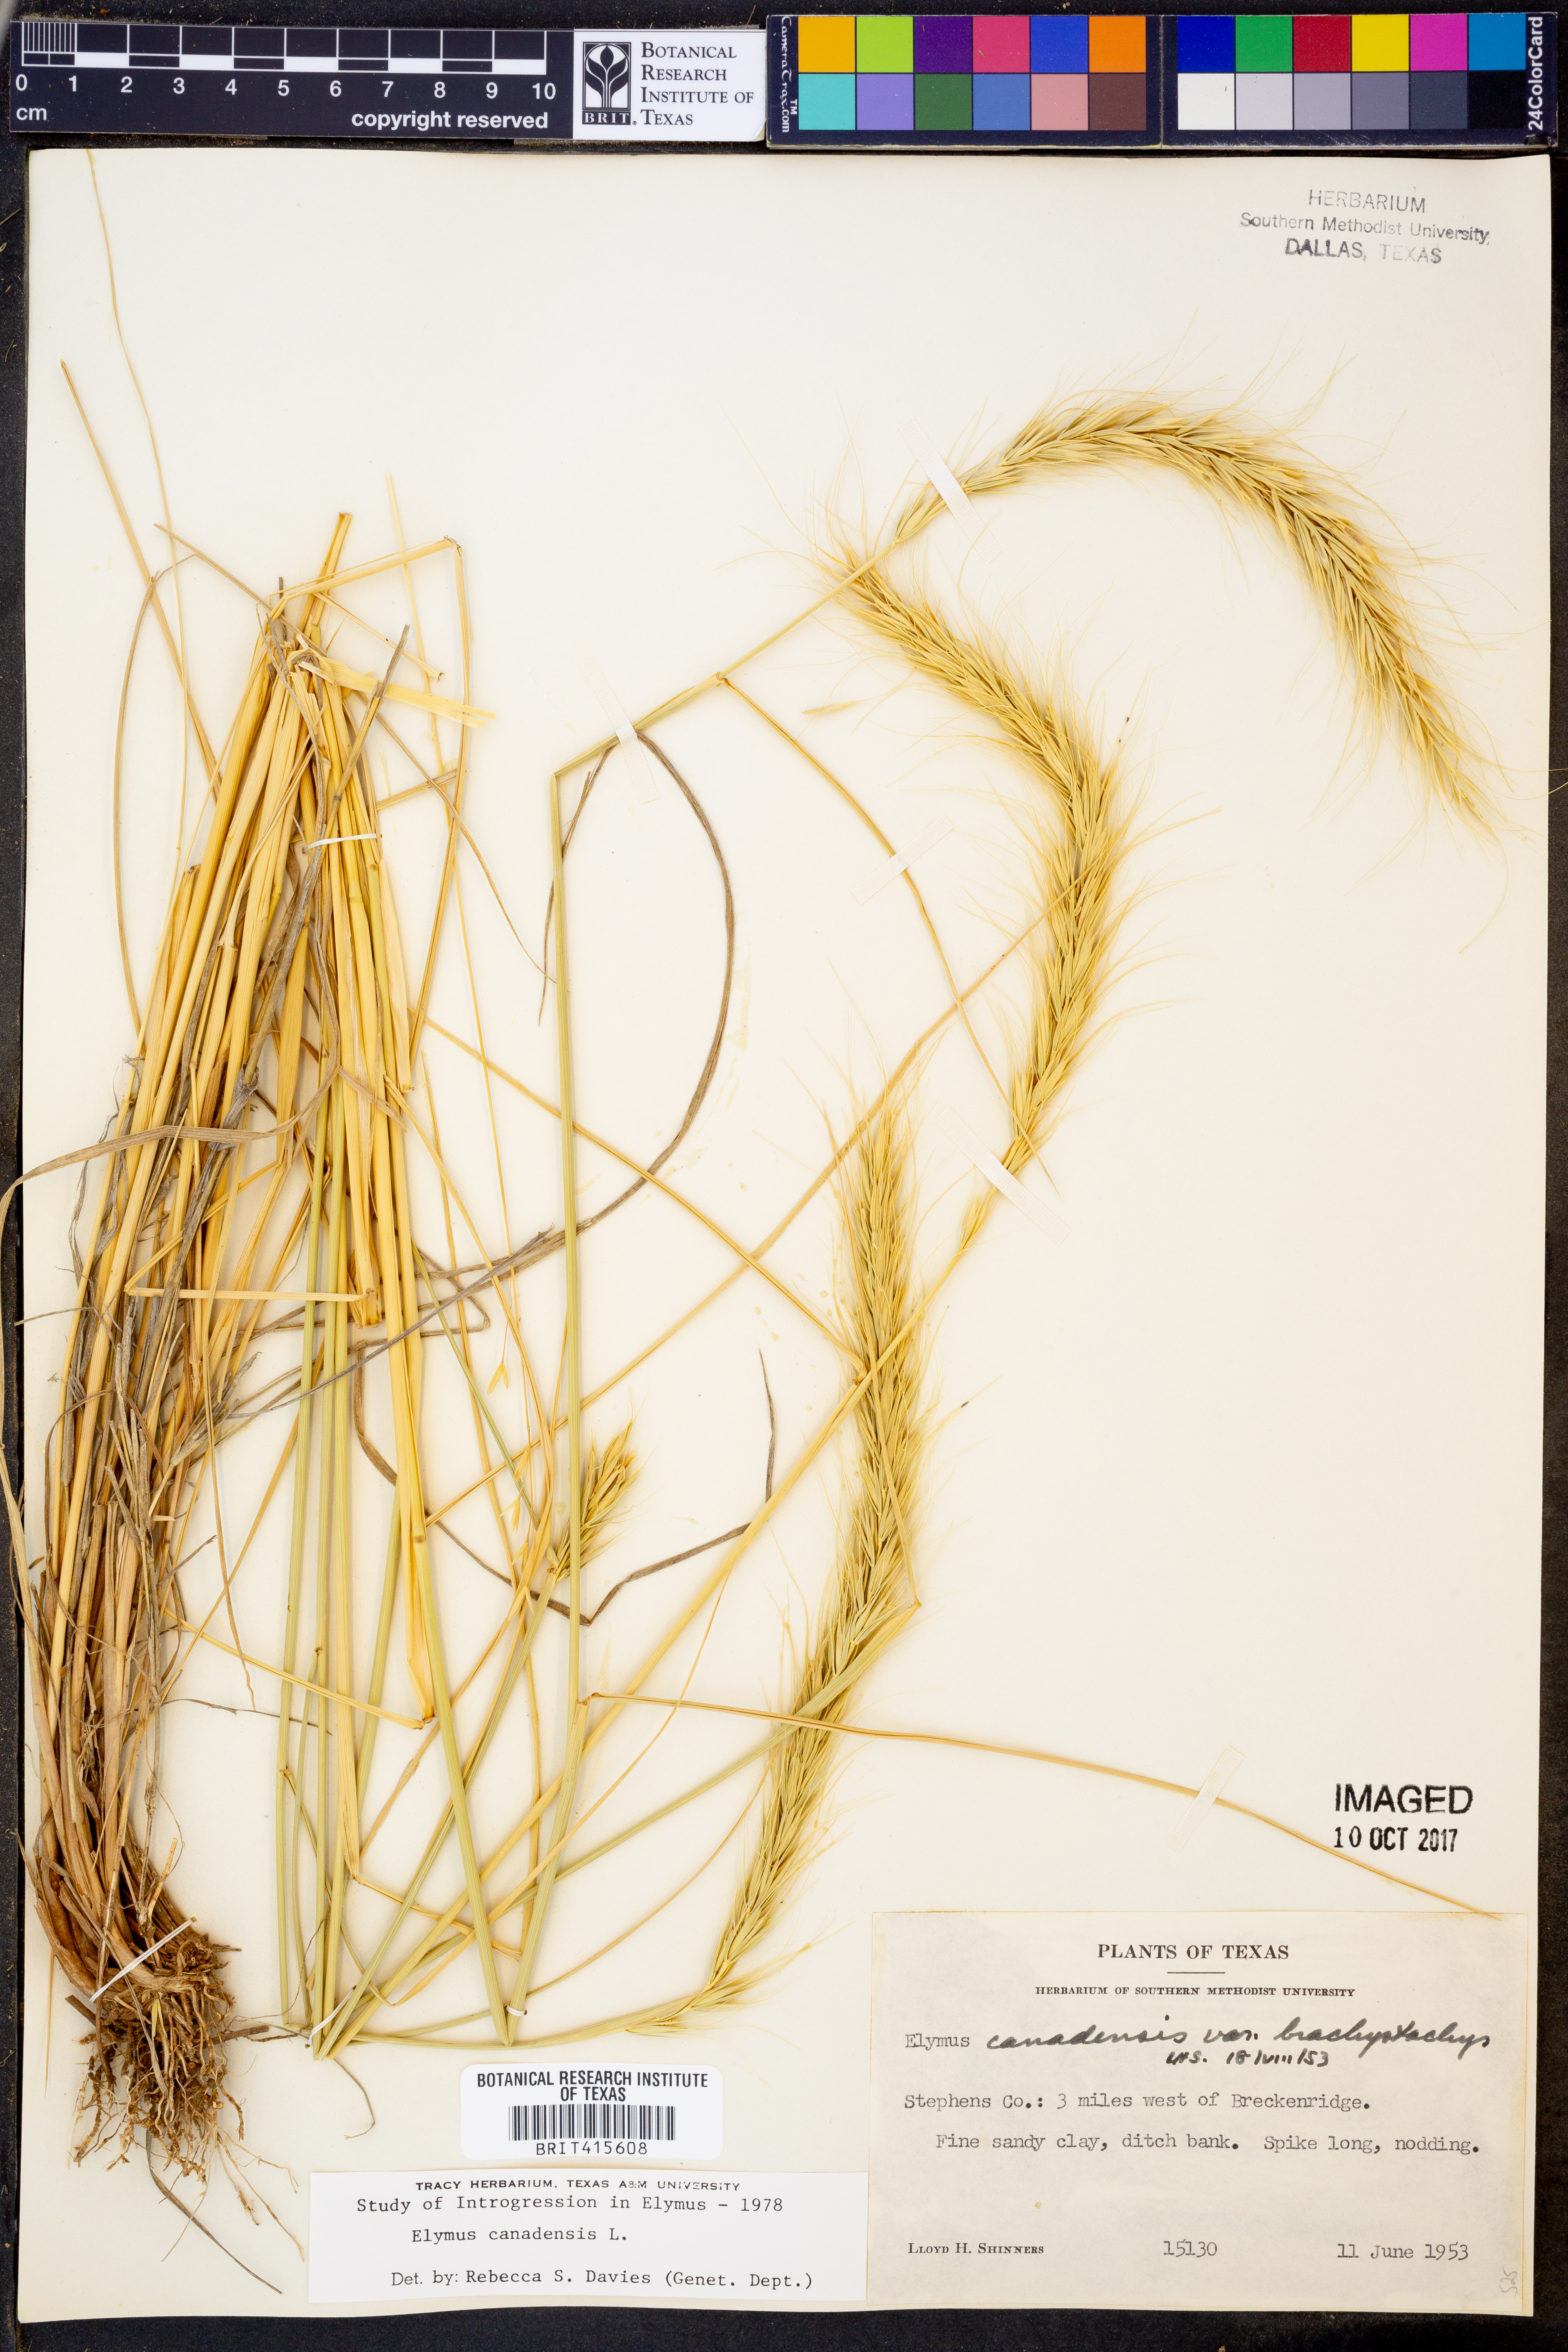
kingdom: Plantae
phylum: Tracheophyta
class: Liliopsida
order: Poales
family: Poaceae
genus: Elymus
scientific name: Elymus canadensis
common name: Canada wild rye
